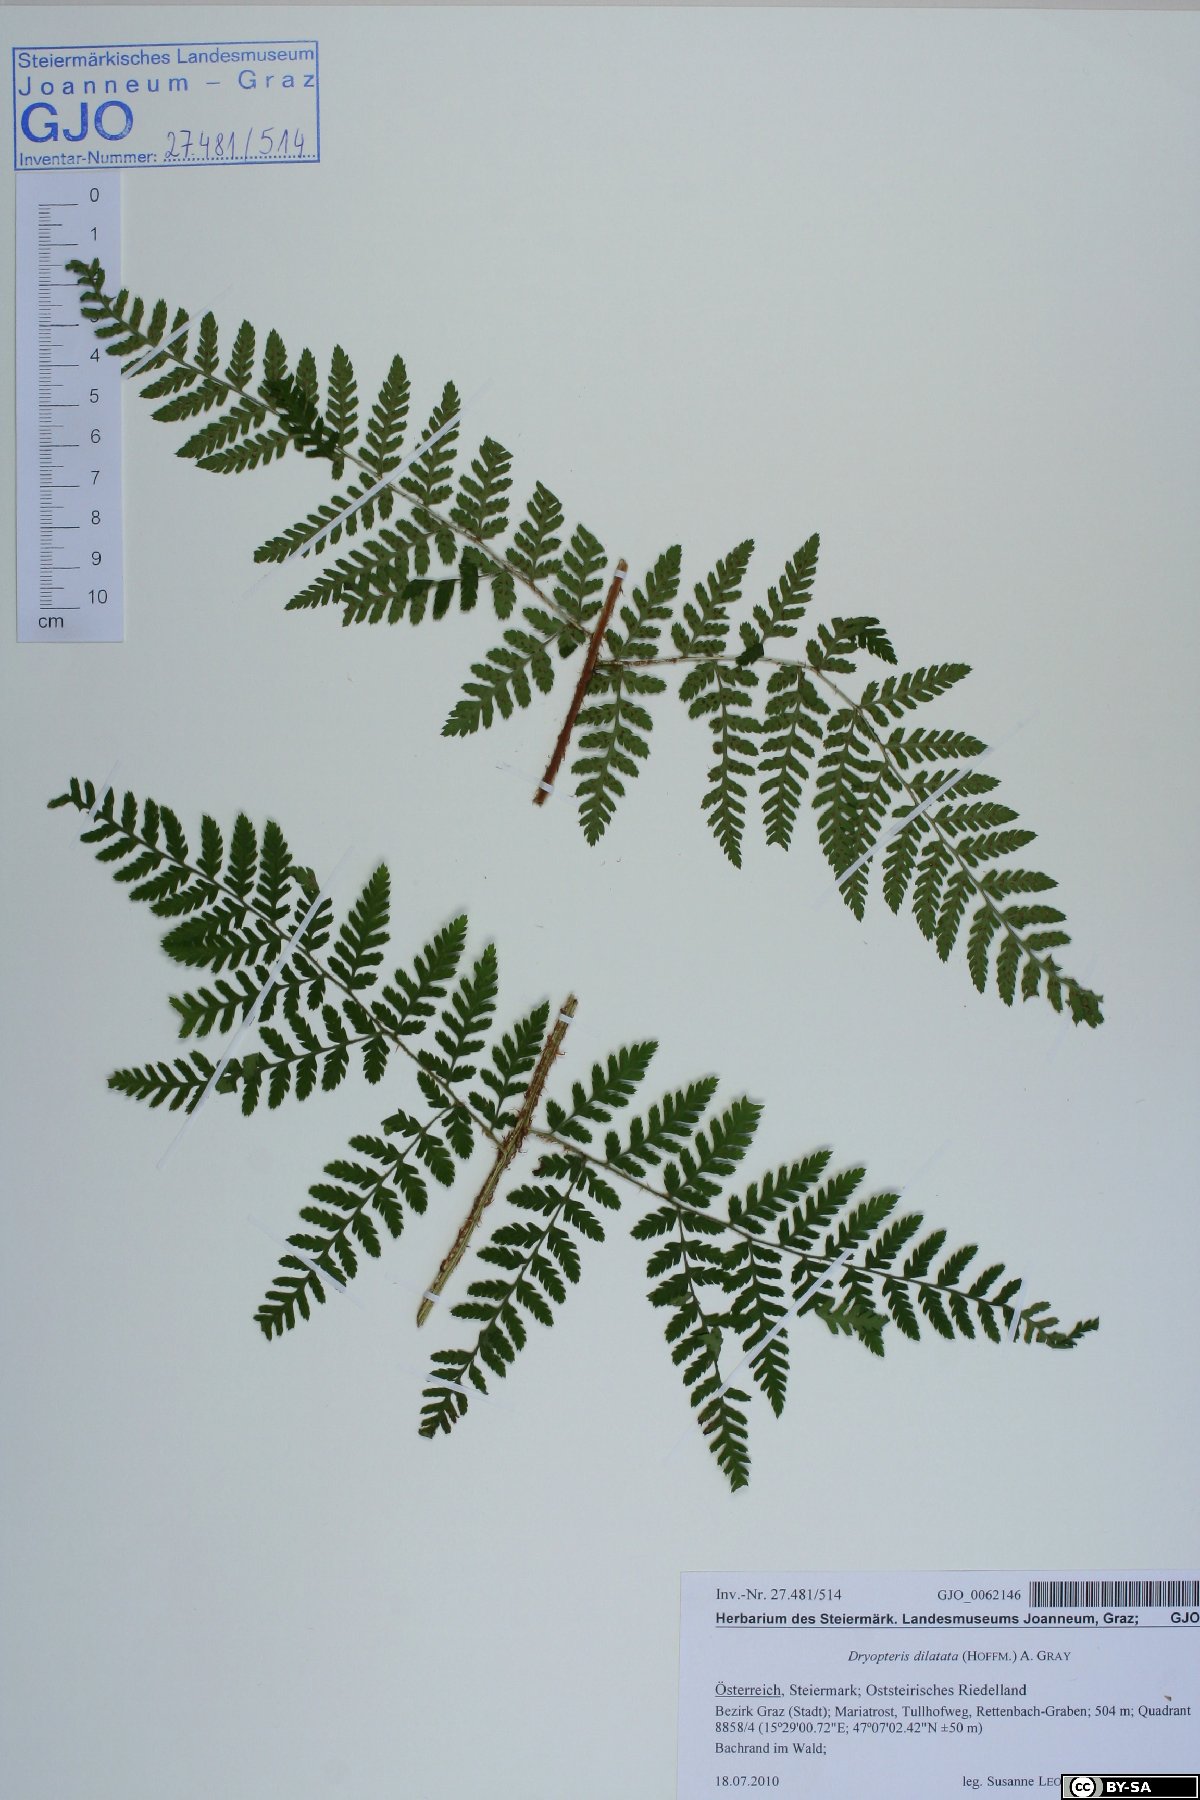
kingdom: Plantae
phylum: Tracheophyta
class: Polypodiopsida
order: Polypodiales
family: Dryopteridaceae
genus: Dryopteris
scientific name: Dryopteris dilatata
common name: Broad buckler-fern
